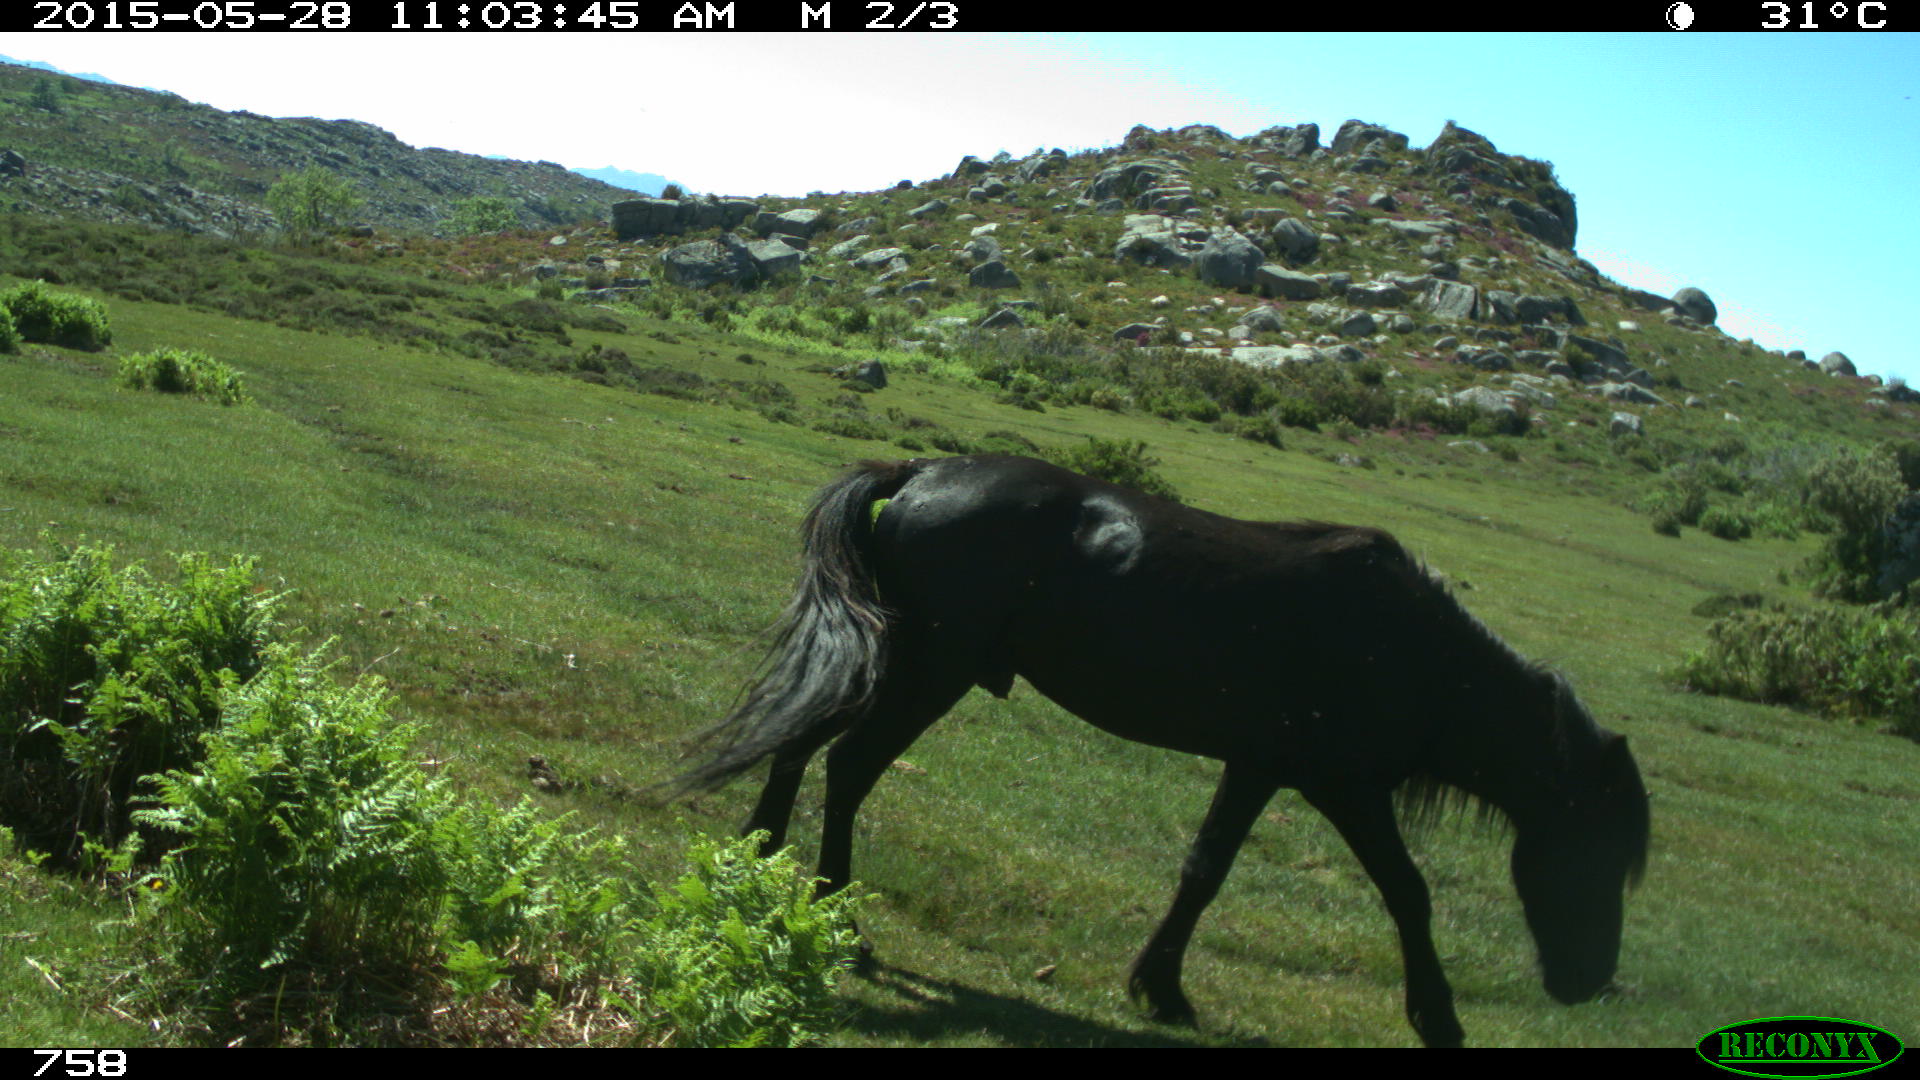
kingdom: Animalia
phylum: Chordata
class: Mammalia
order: Perissodactyla
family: Equidae
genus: Equus
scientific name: Equus caballus
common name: Horse
